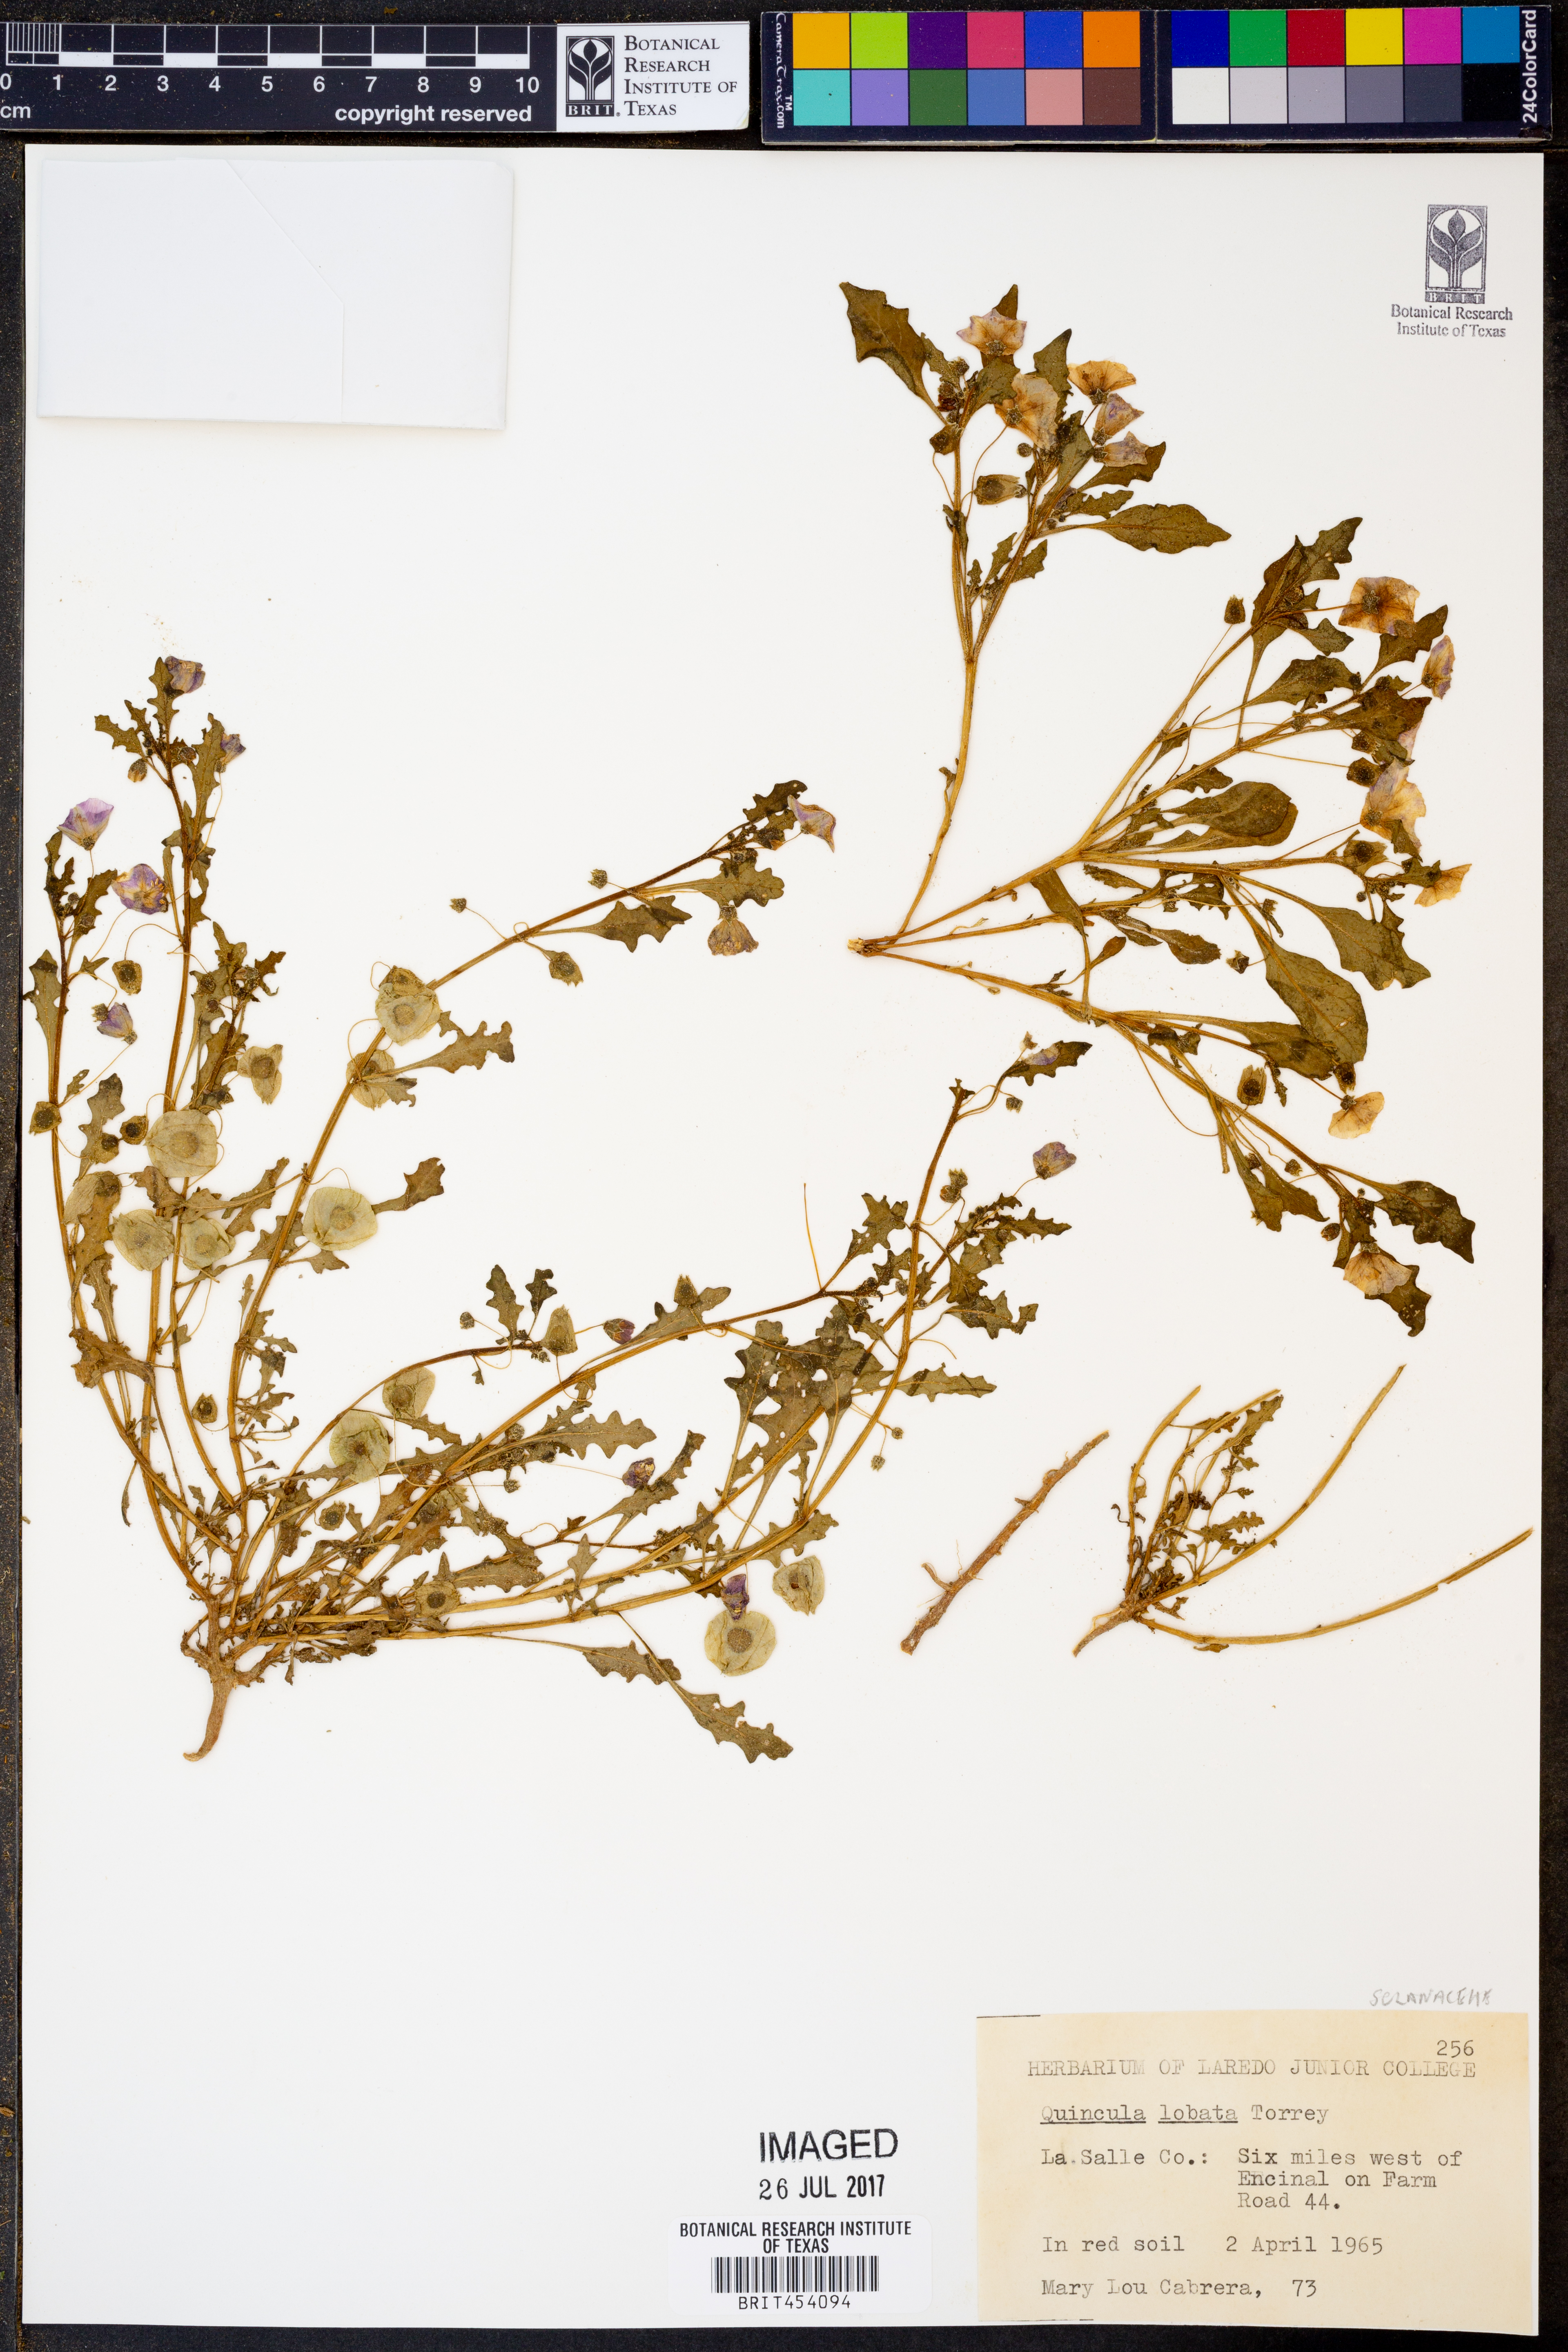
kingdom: Plantae
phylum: Tracheophyta
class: Magnoliopsida
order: Solanales
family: Solanaceae
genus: Quincula
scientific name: Quincula lobata
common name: Purple-ground-cherry
